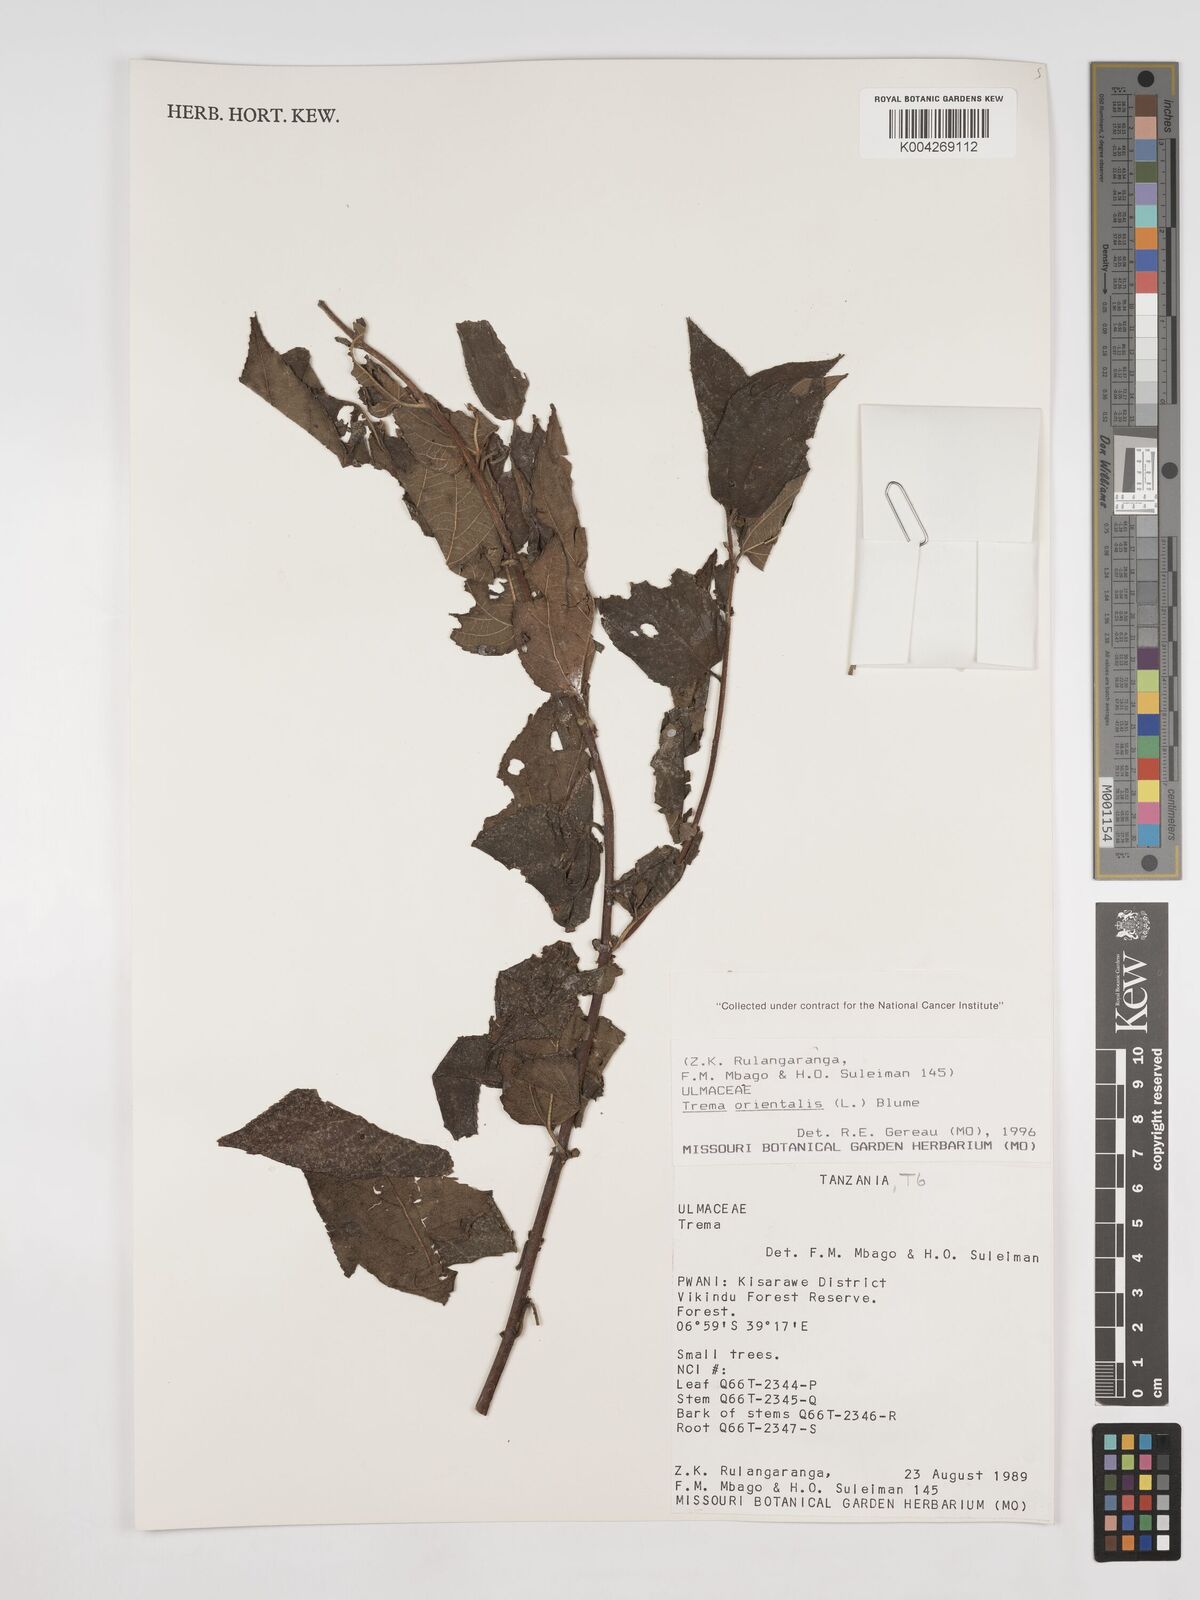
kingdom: Plantae
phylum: Tracheophyta
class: Magnoliopsida
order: Rosales
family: Cannabaceae
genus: Trema
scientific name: Trema orientale
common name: Indian charcoal tree
